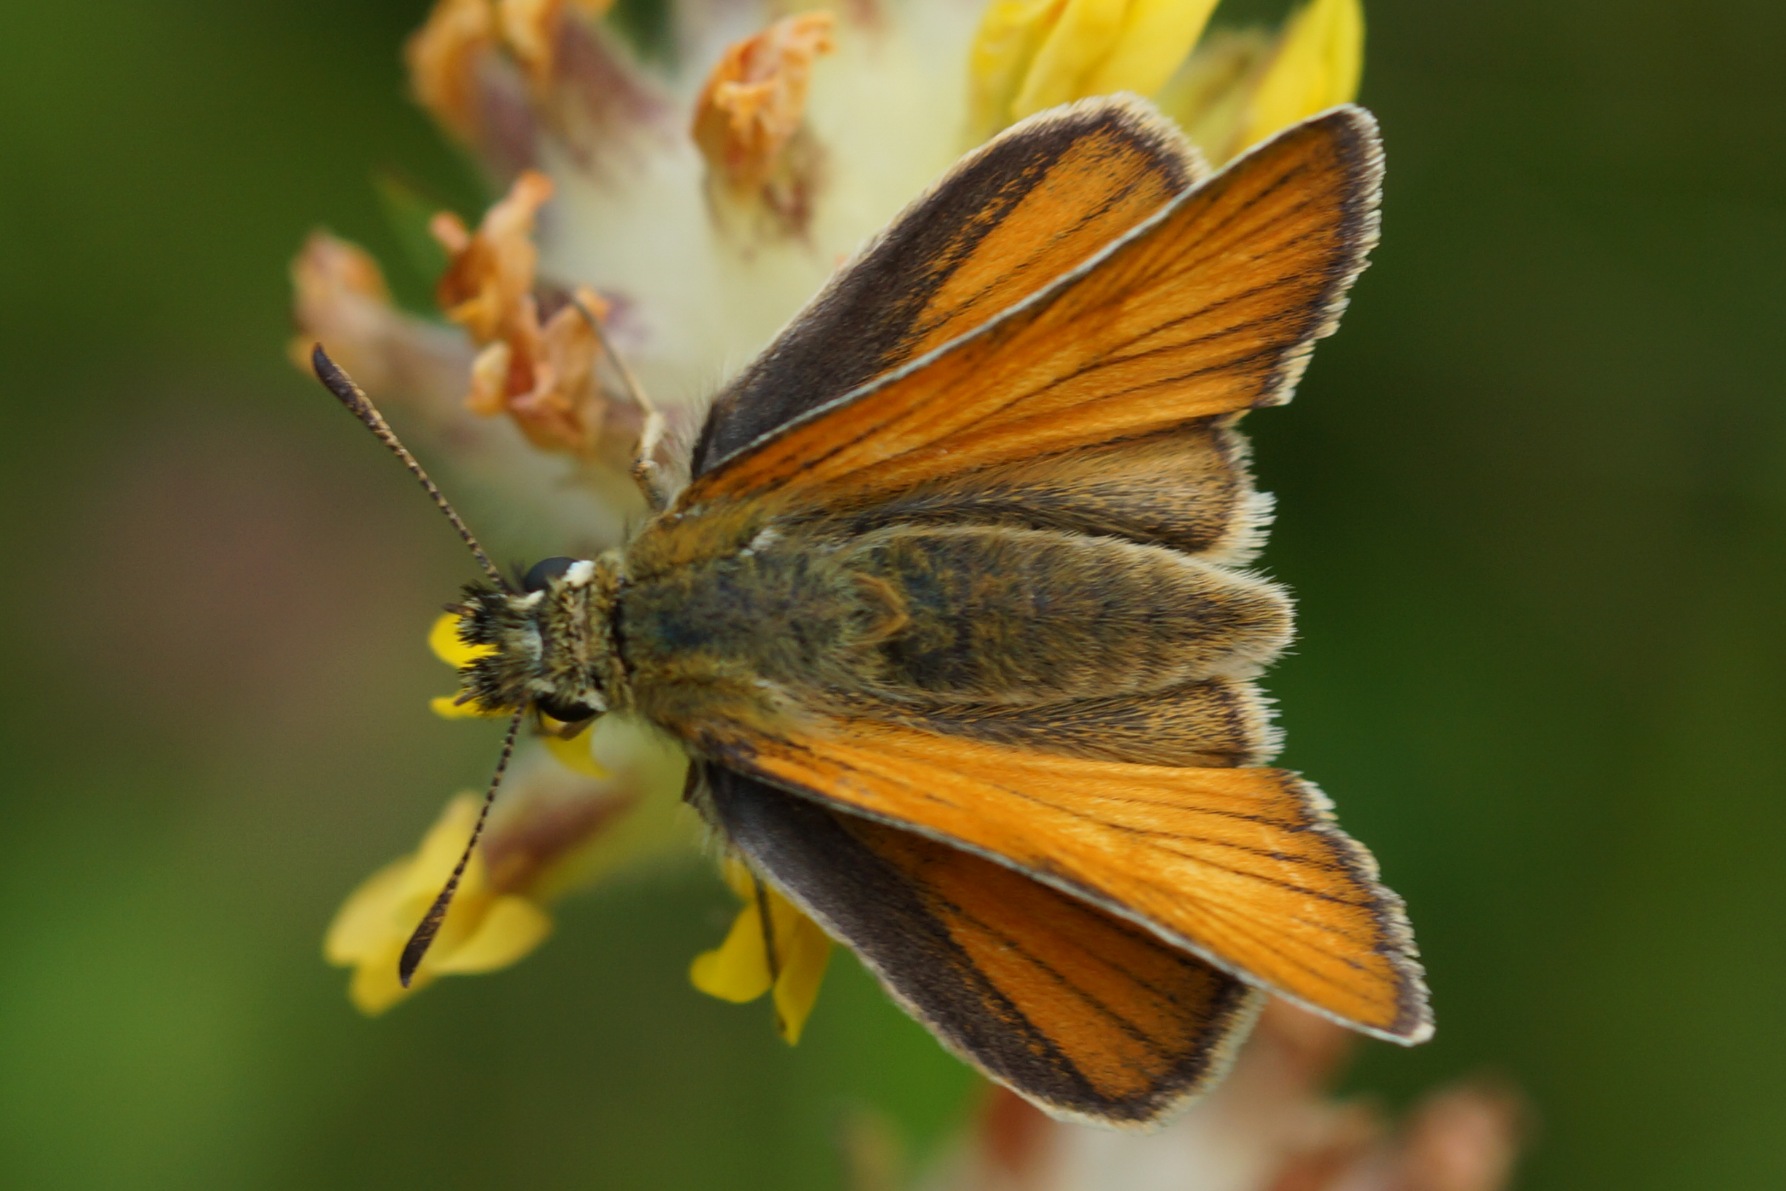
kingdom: Animalia
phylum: Arthropoda
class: Insecta
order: Lepidoptera
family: Hesperiidae
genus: Thymelicus
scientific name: Thymelicus lineola
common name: Stregbredpande
